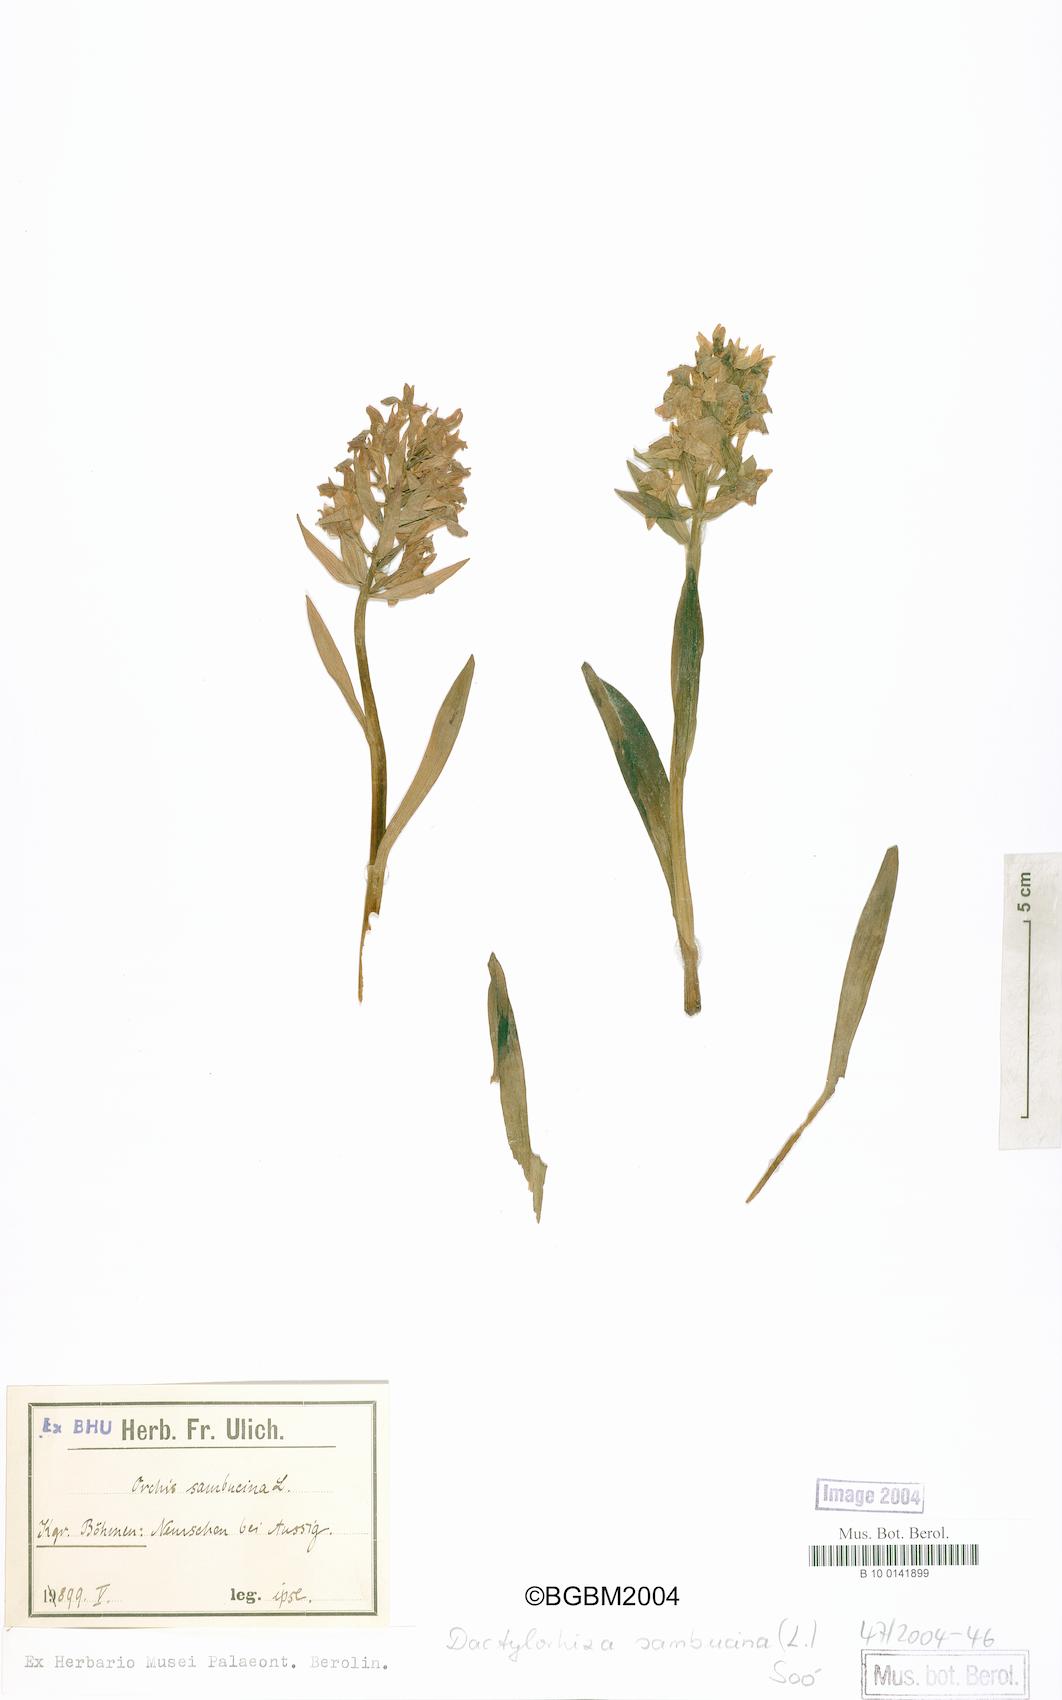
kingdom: Plantae
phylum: Tracheophyta
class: Liliopsida
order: Asparagales
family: Orchidaceae
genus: Dactylorhiza
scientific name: Dactylorhiza sambucina
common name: Elder-flowered orchid
